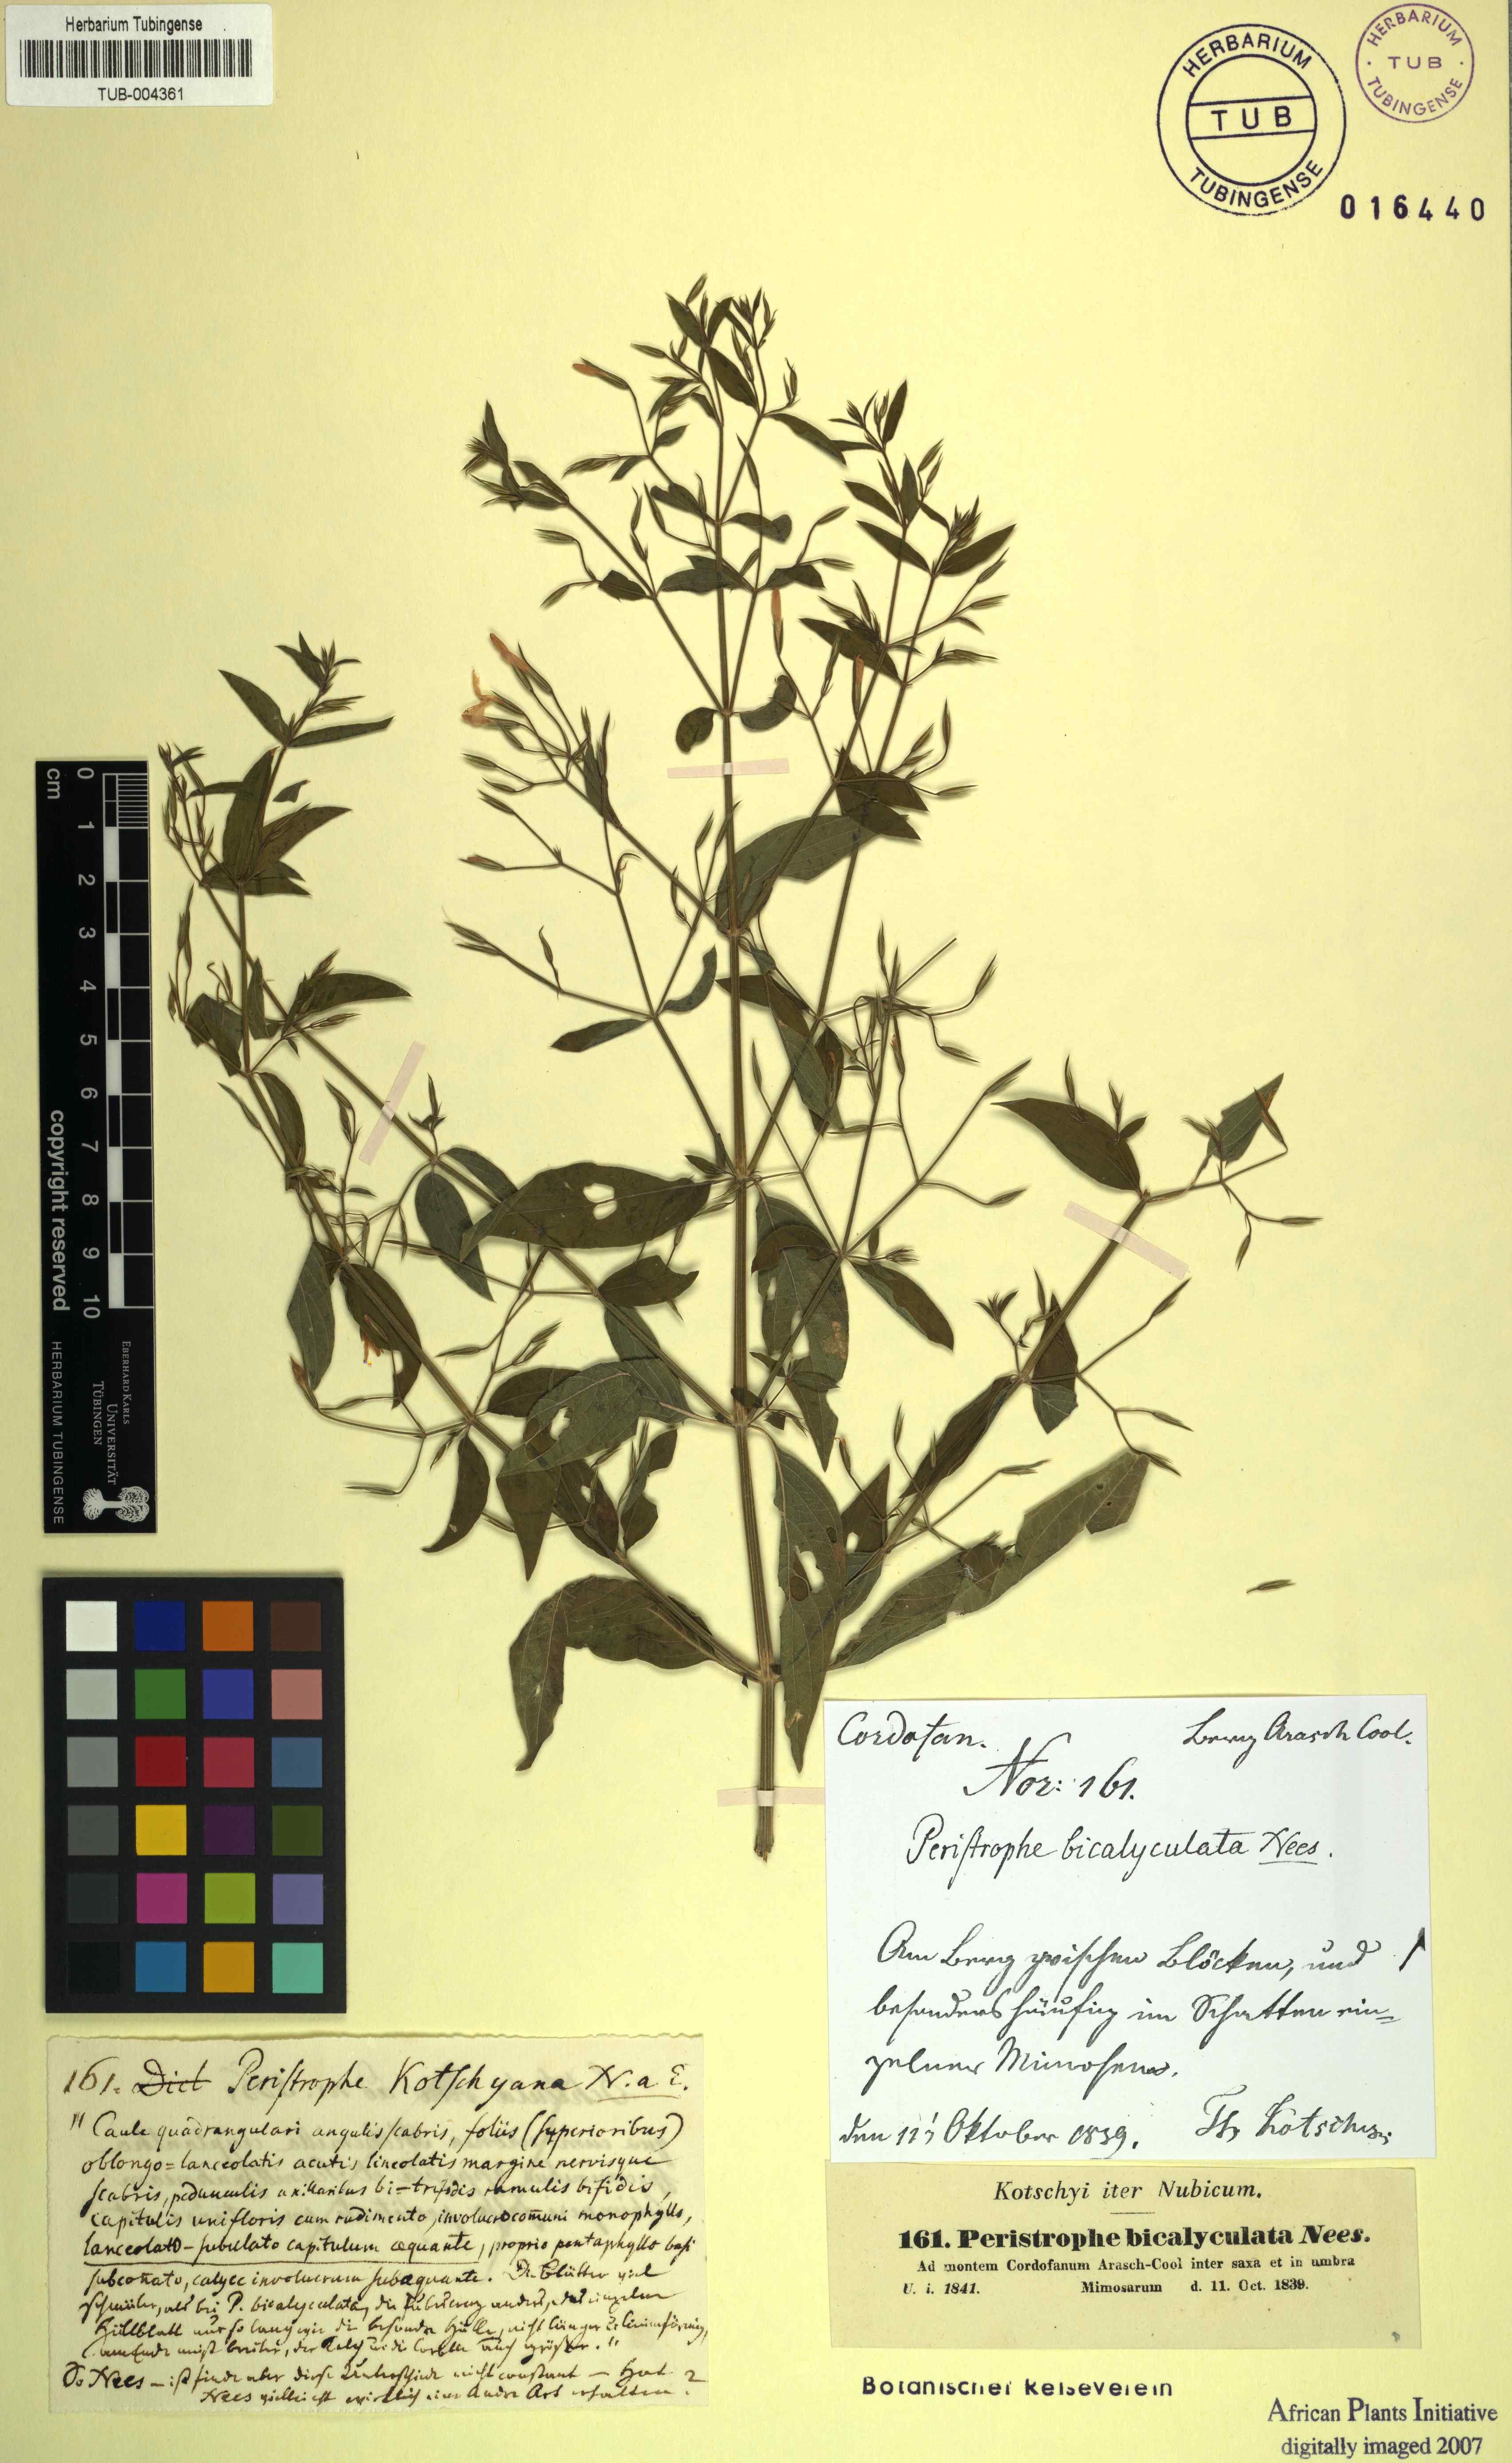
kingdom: Plantae
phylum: Tracheophyta
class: Magnoliopsida
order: Lamiales
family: Acanthaceae
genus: Dicliptera
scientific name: Dicliptera paniculata
